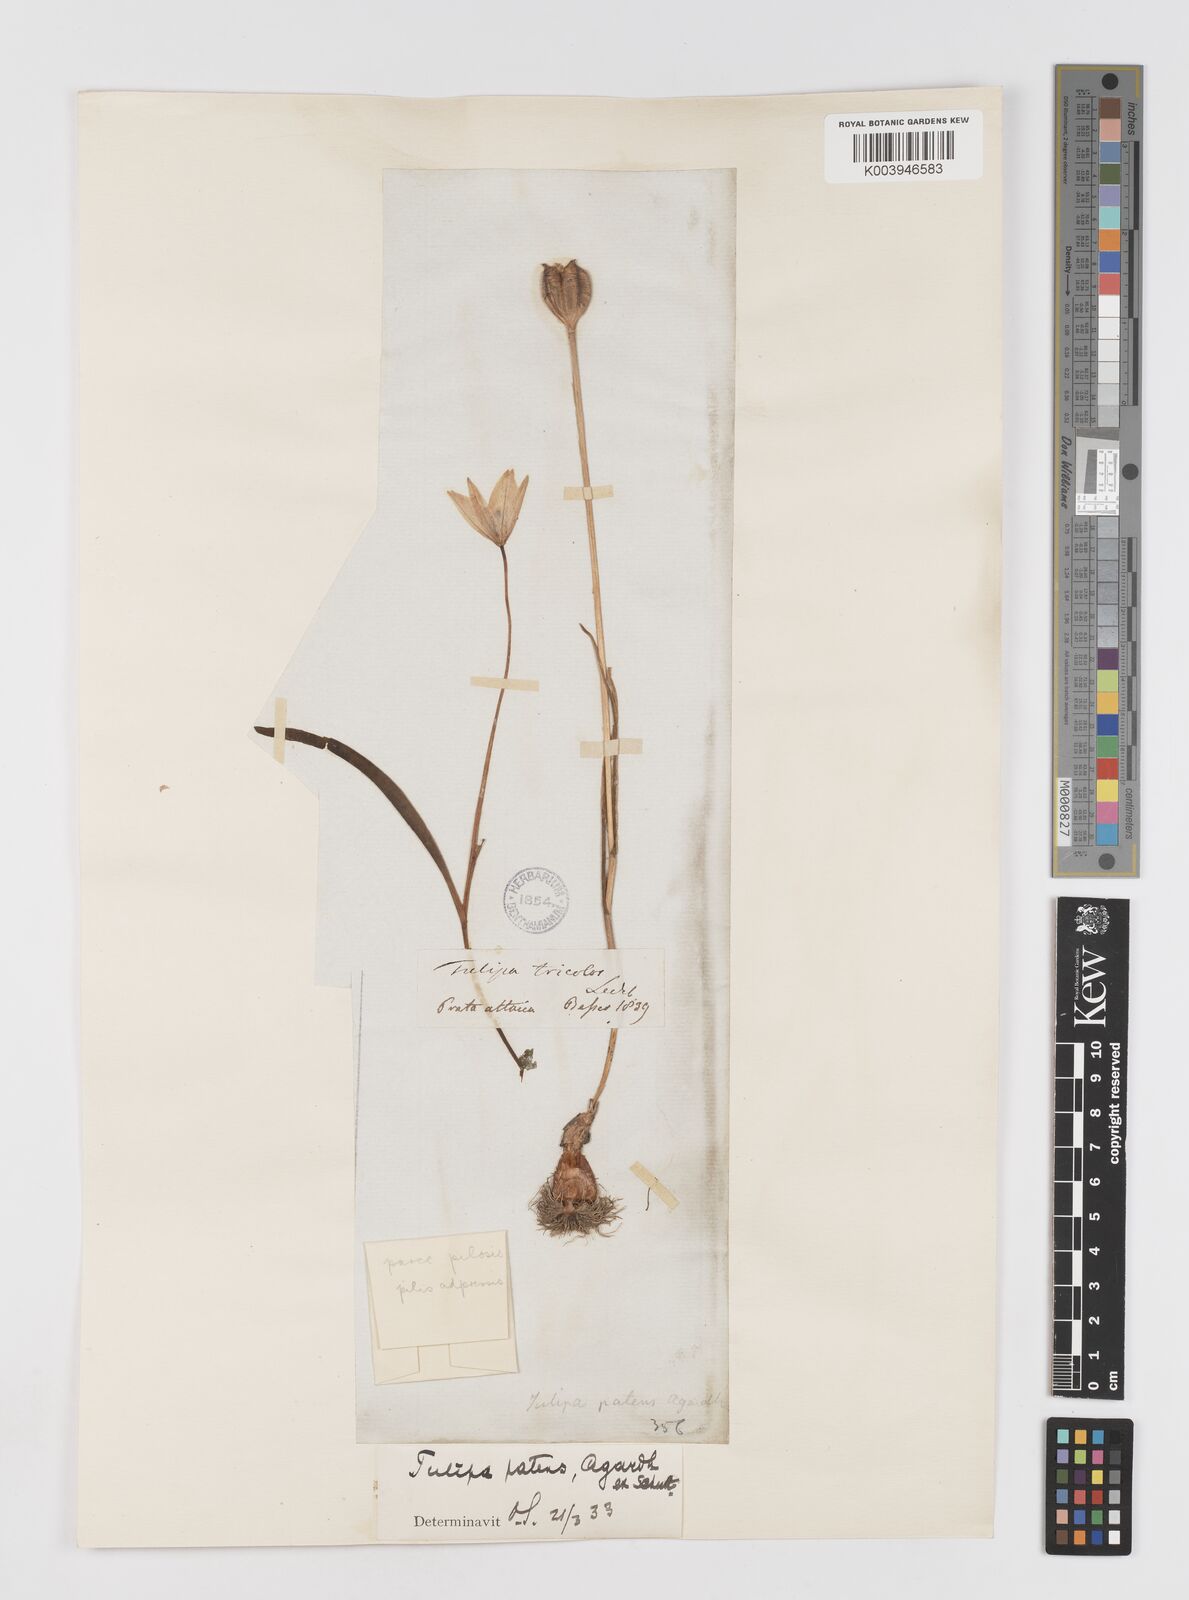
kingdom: Plantae
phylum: Tracheophyta
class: Liliopsida
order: Liliales
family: Liliaceae
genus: Tulipa
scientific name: Tulipa sylvestris
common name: Wild tulip
